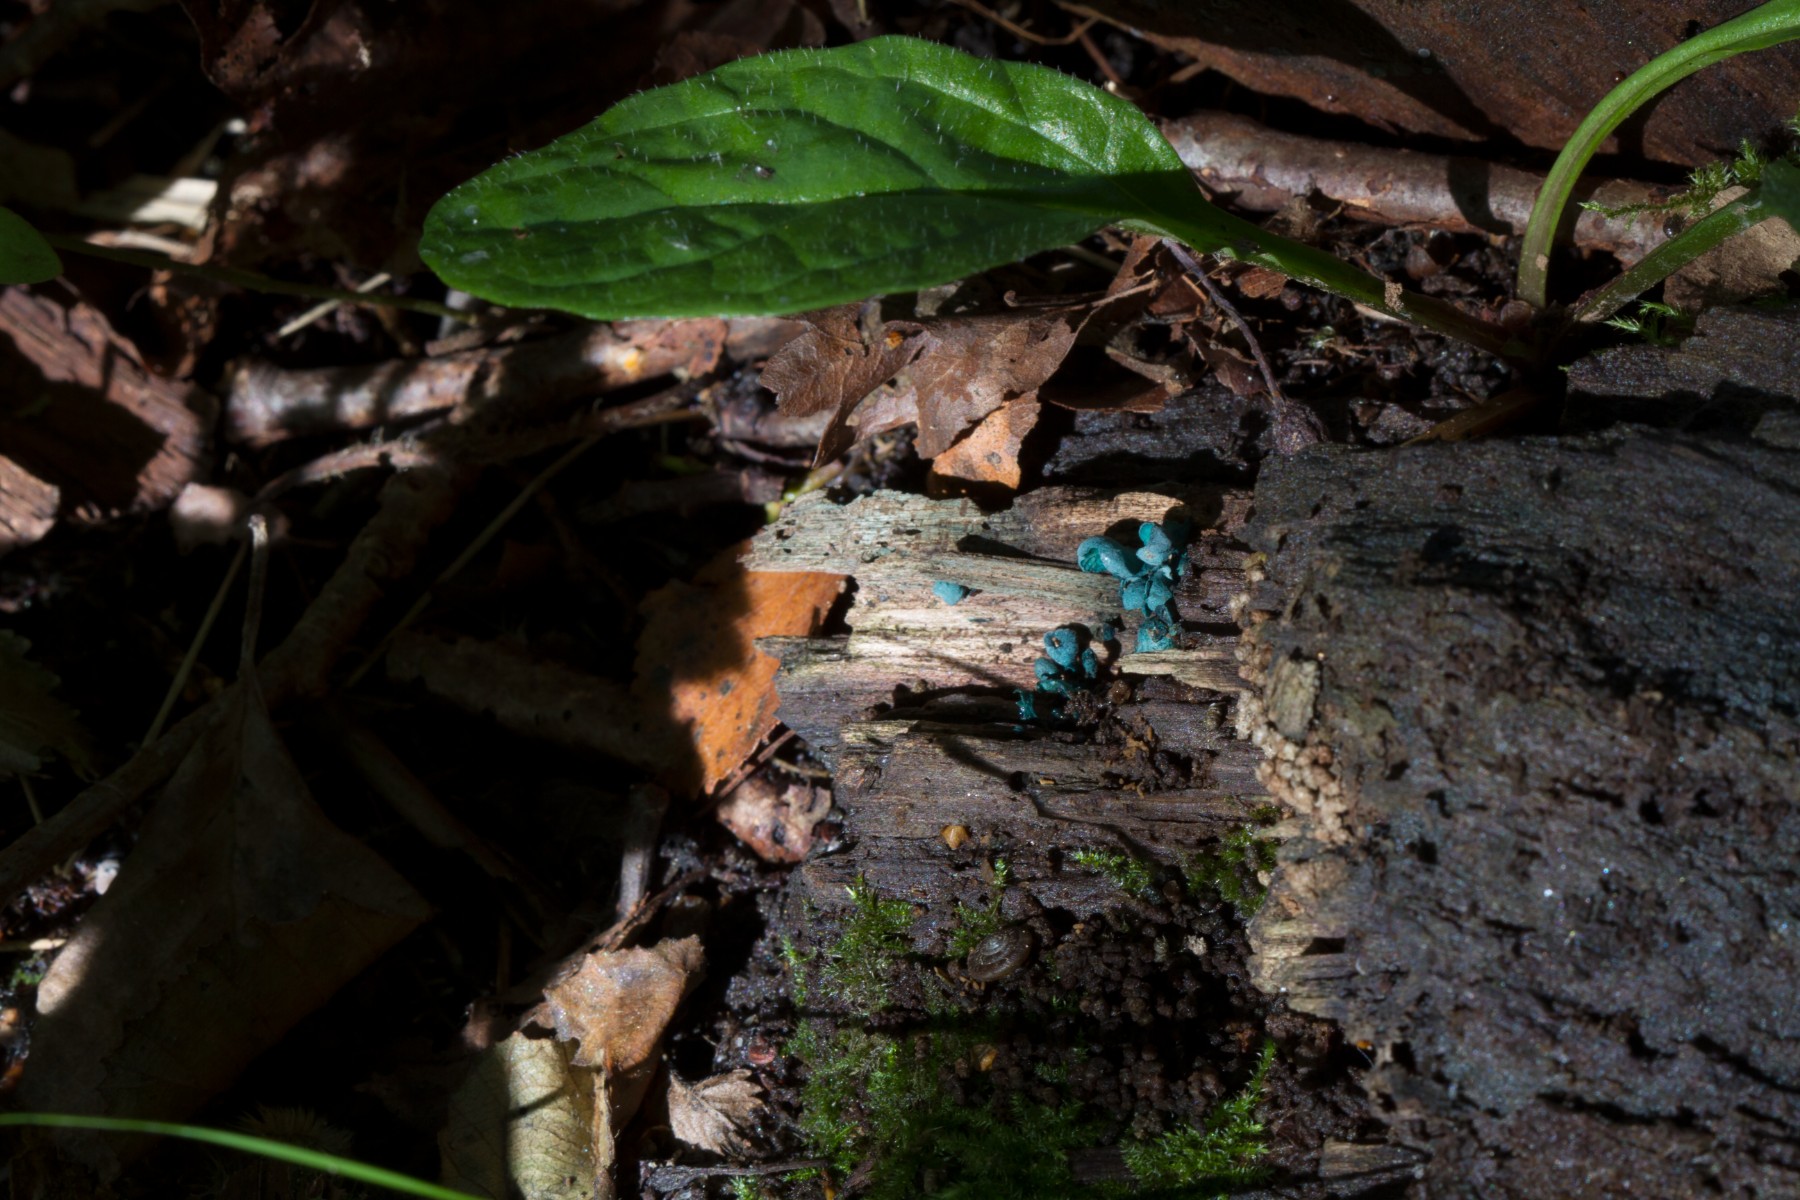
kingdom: Fungi
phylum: Ascomycota
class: Leotiomycetes
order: Helotiales
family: Chlorociboriaceae
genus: Chlorociboria
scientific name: Chlorociboria aeruginascens
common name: almindelig grønskive
